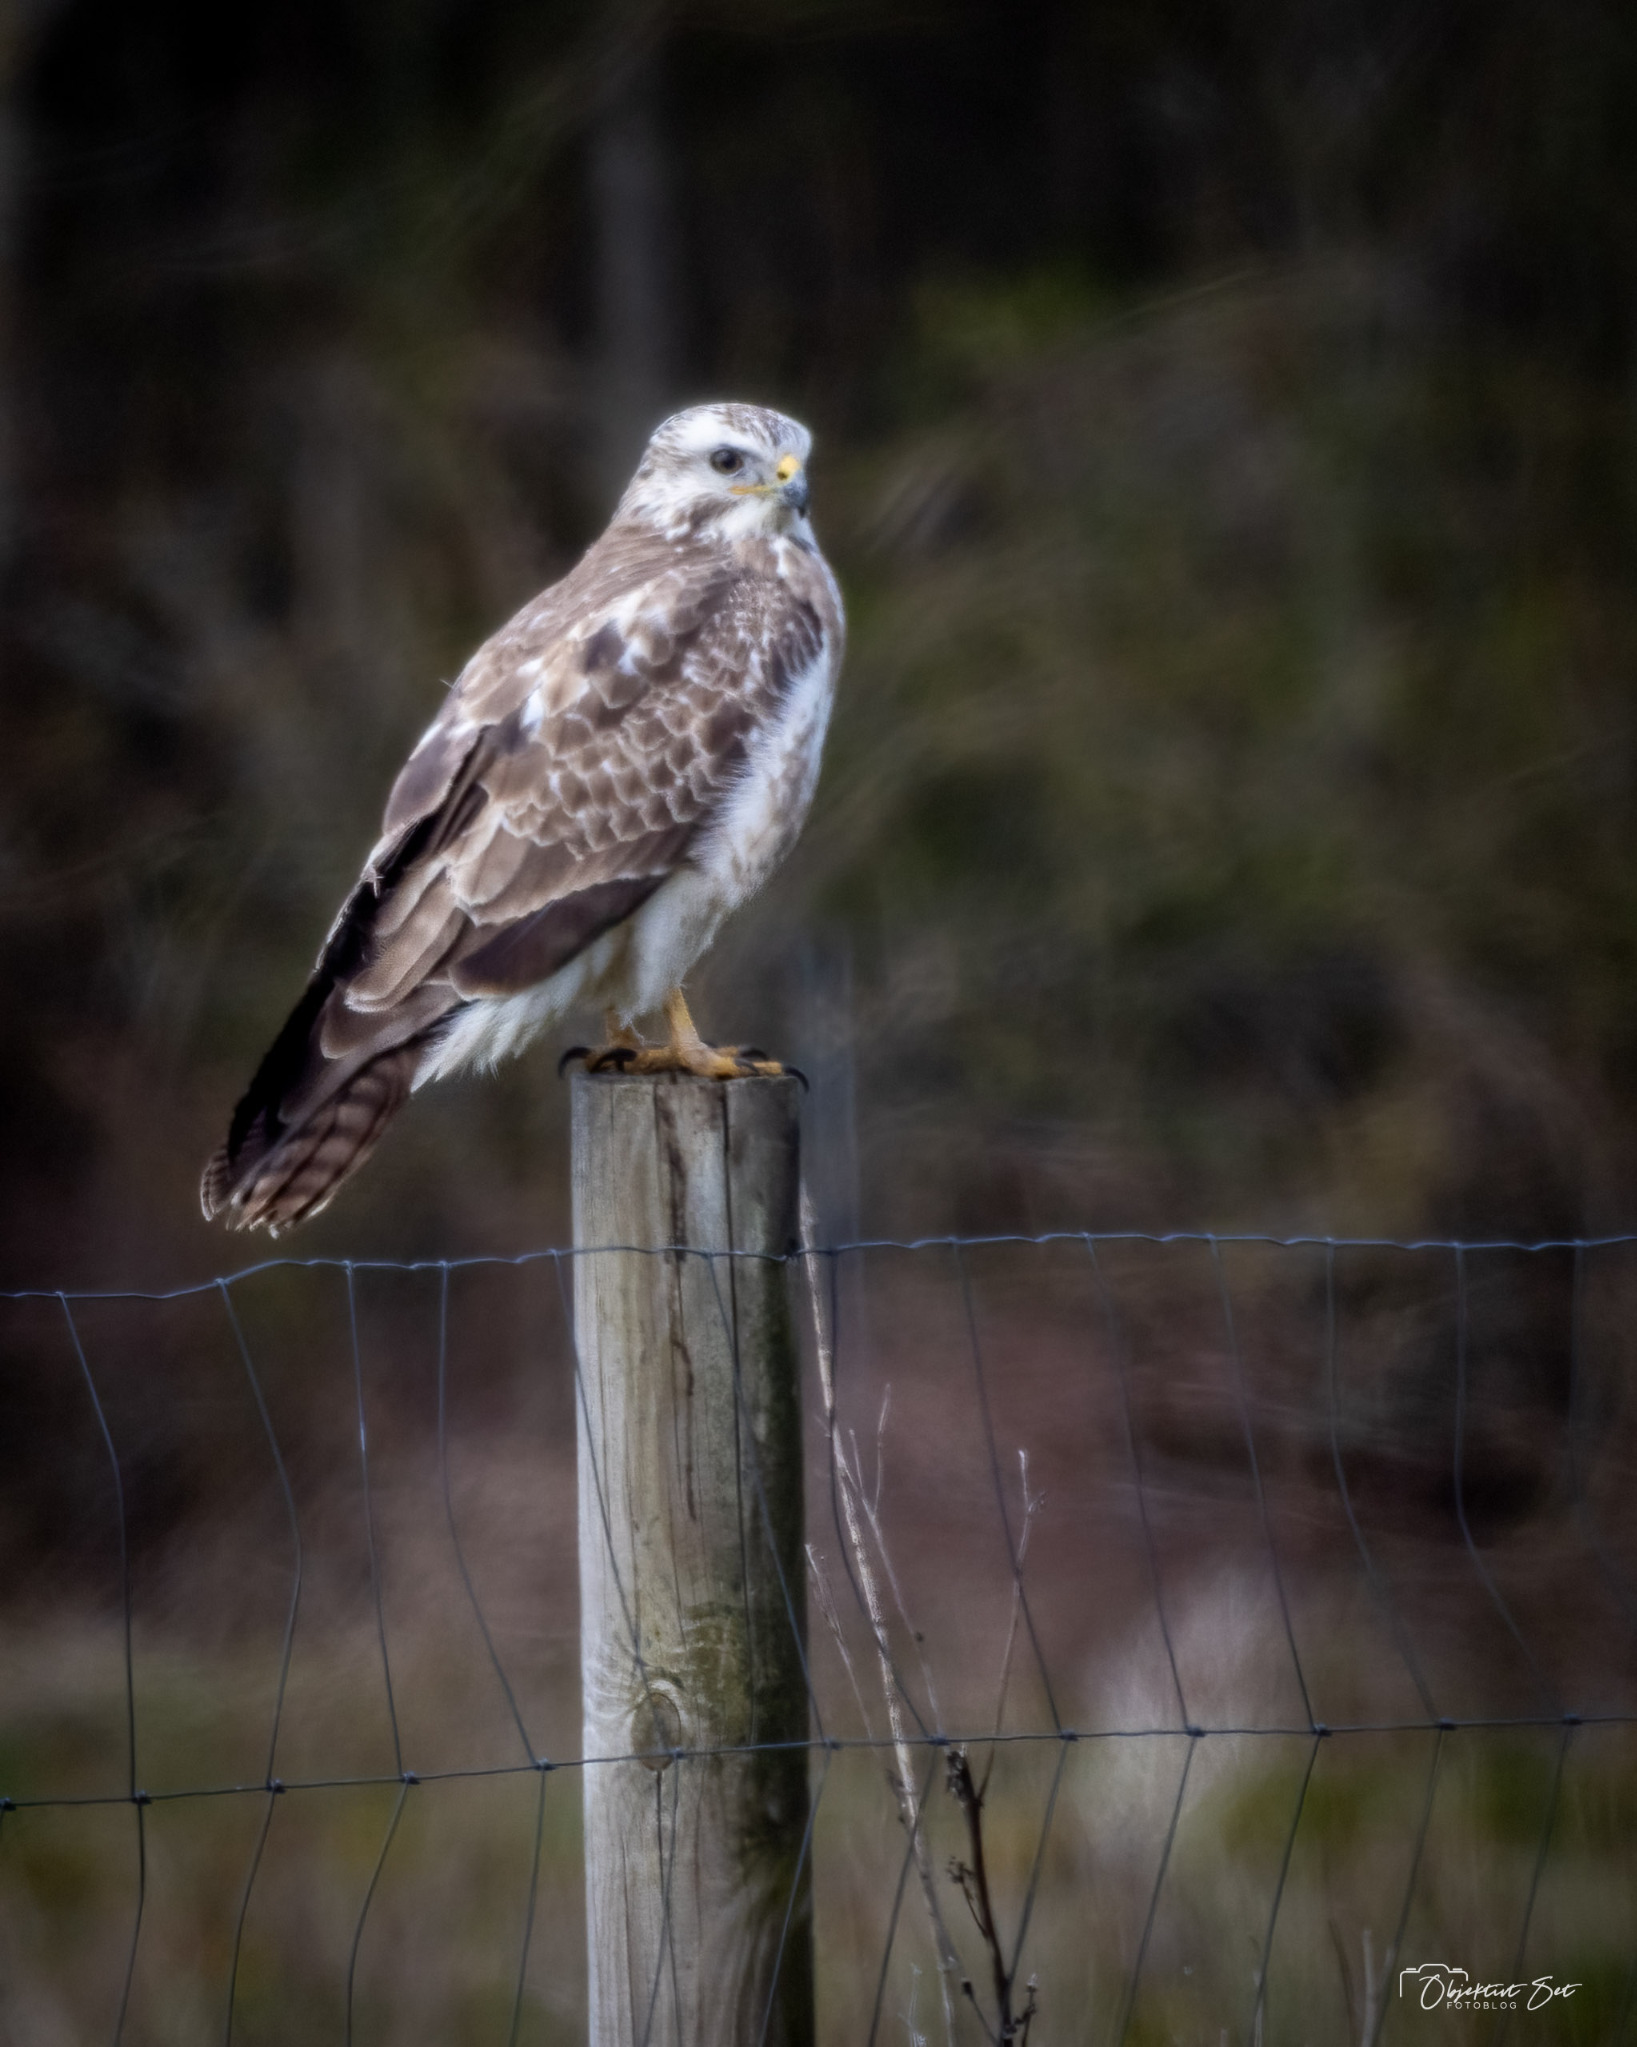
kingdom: Animalia
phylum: Chordata
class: Aves
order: Accipitriformes
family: Accipitridae
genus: Buteo
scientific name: Buteo buteo
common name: Musvåge
